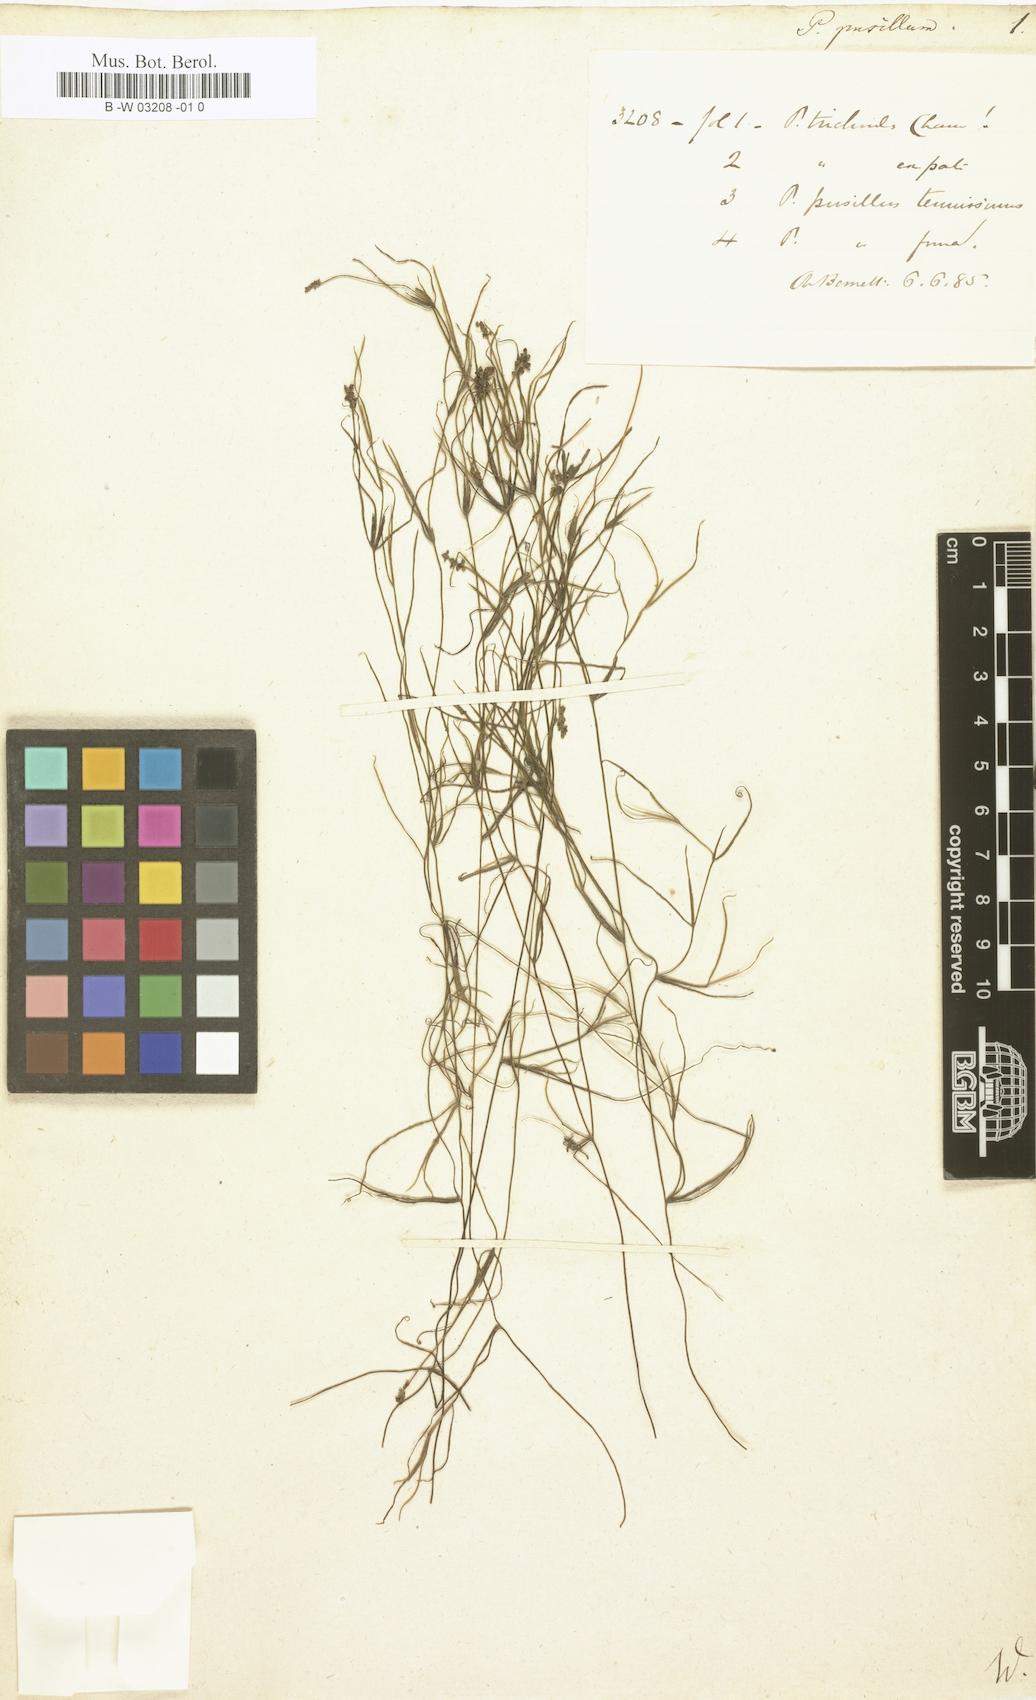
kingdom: Plantae
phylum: Tracheophyta
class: Liliopsida
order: Alismatales
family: Potamogetonaceae
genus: Potamogeton
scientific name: Potamogeton pusillus
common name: Lesser pondweed
